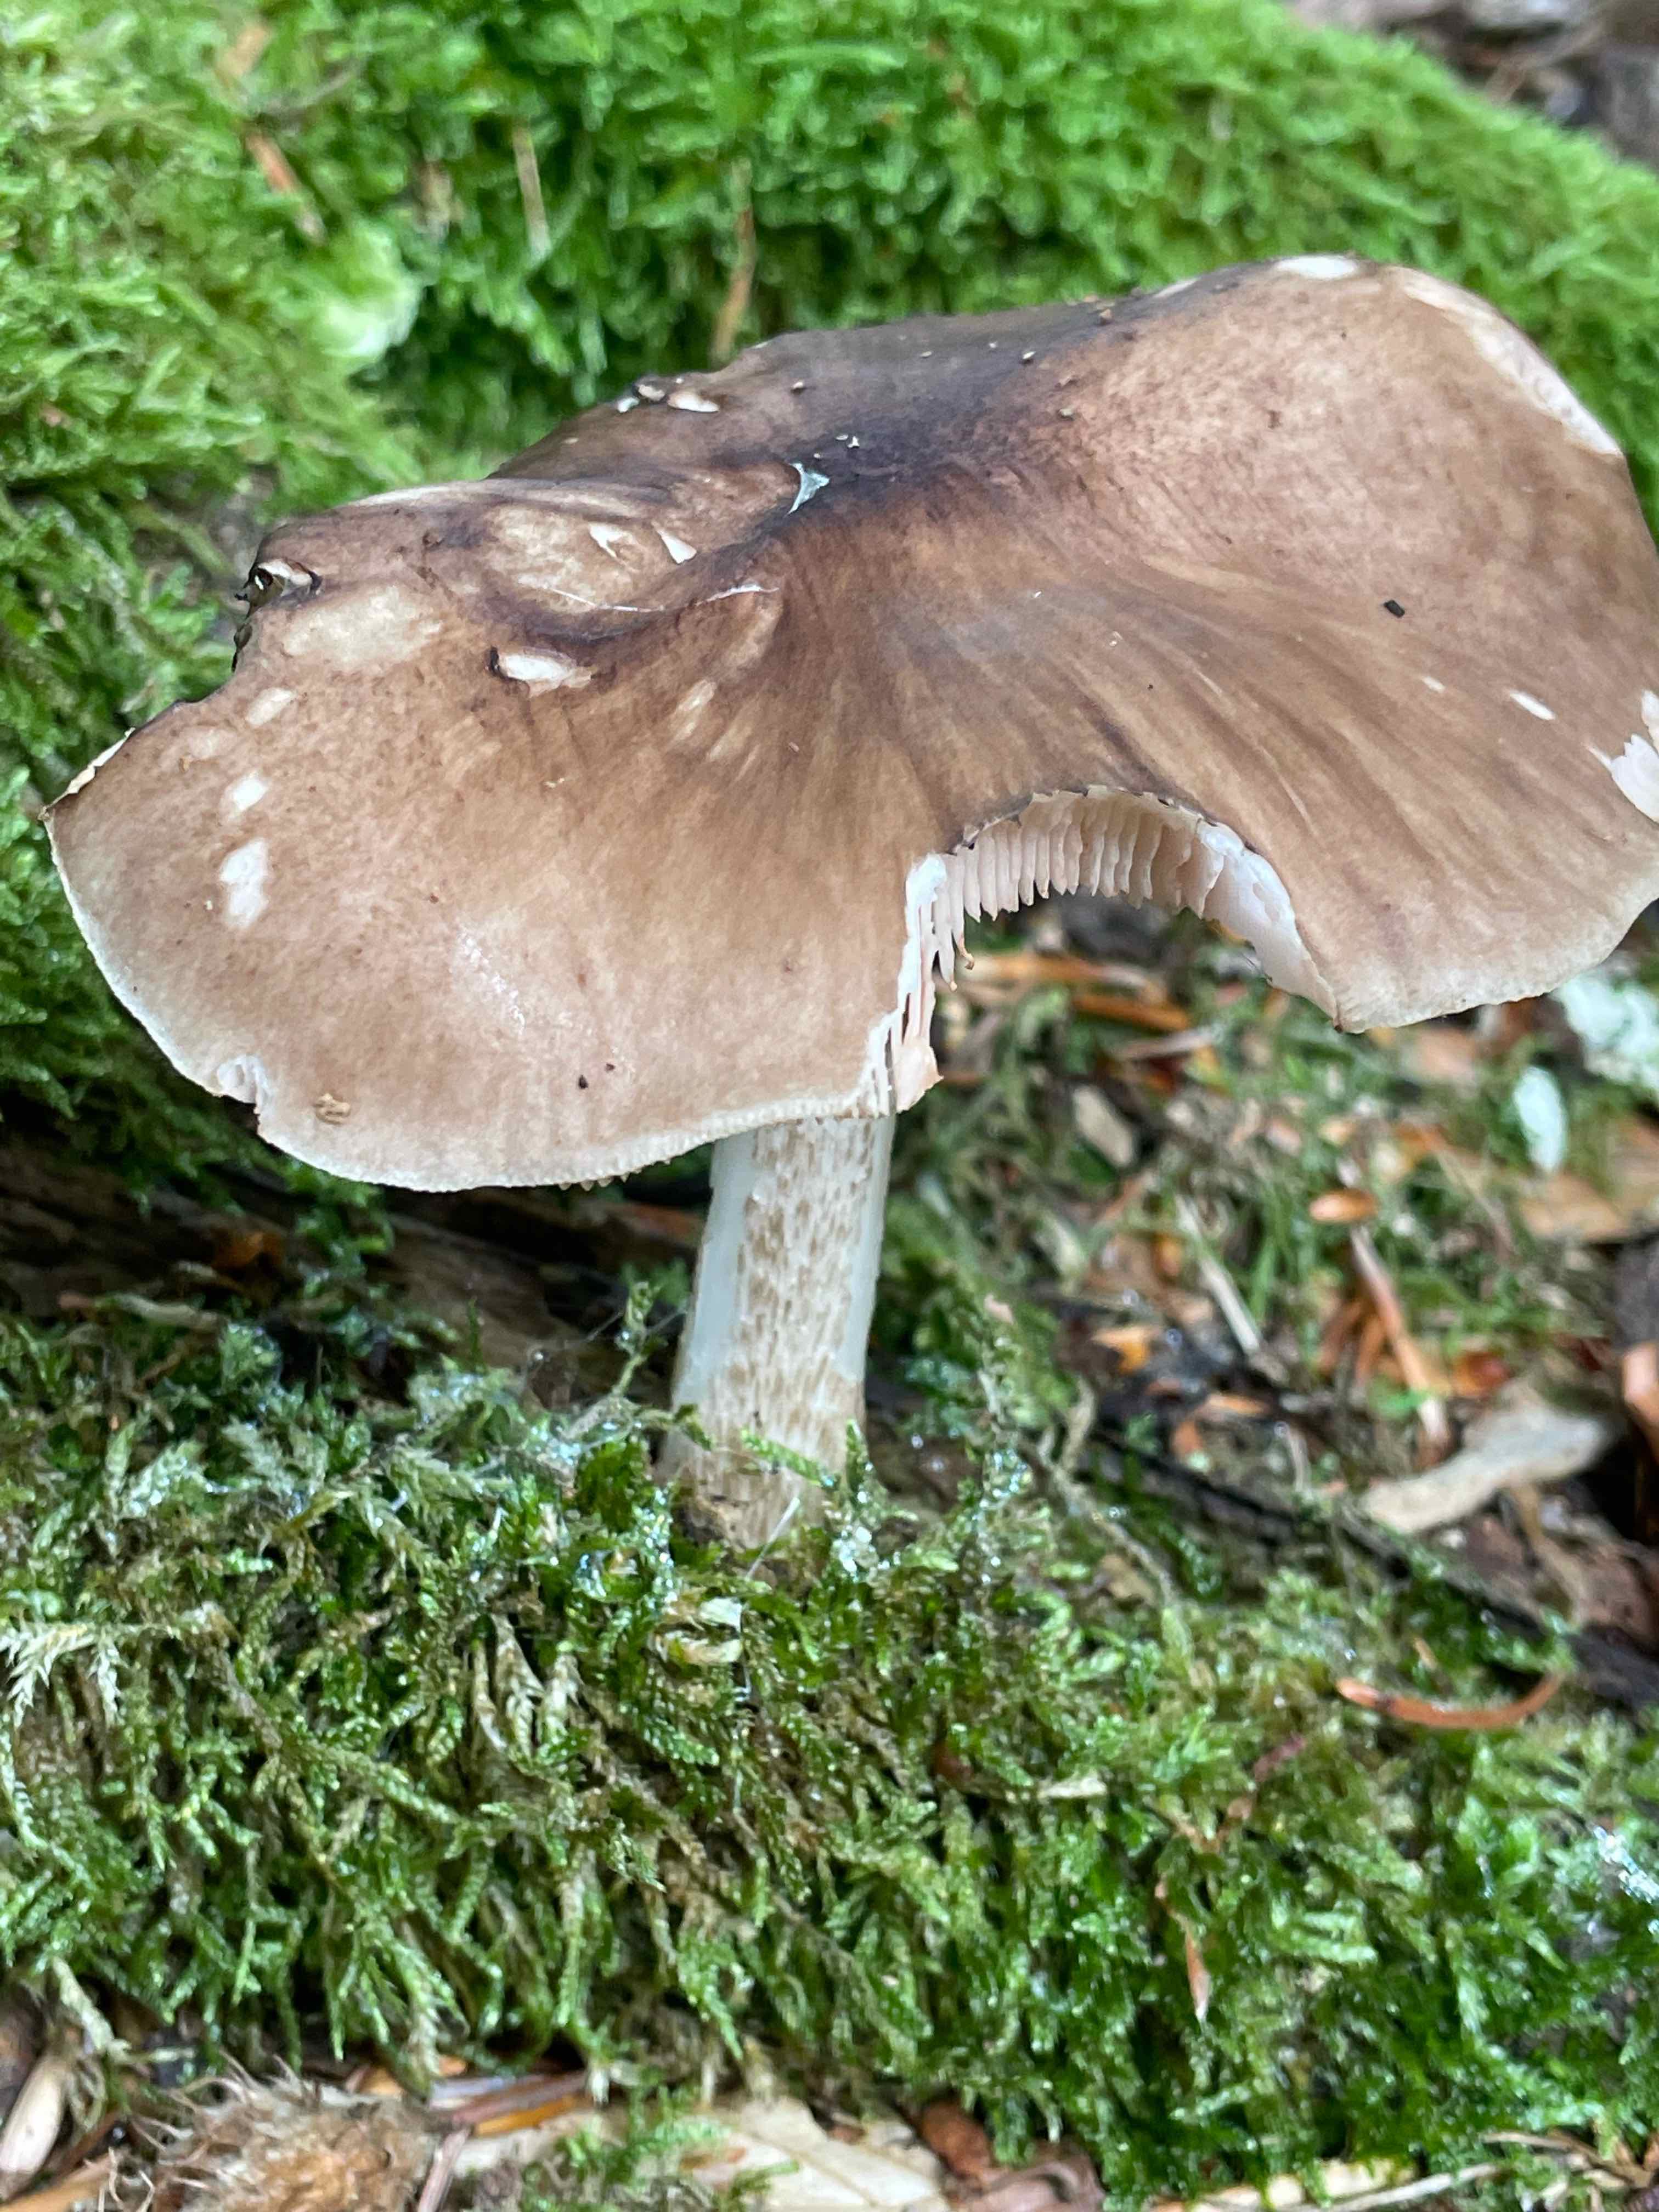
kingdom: Fungi
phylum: Basidiomycota
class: Agaricomycetes
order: Agaricales
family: Pluteaceae
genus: Pluteus
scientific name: Pluteus cervinus
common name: sodfarvet skærmhat
